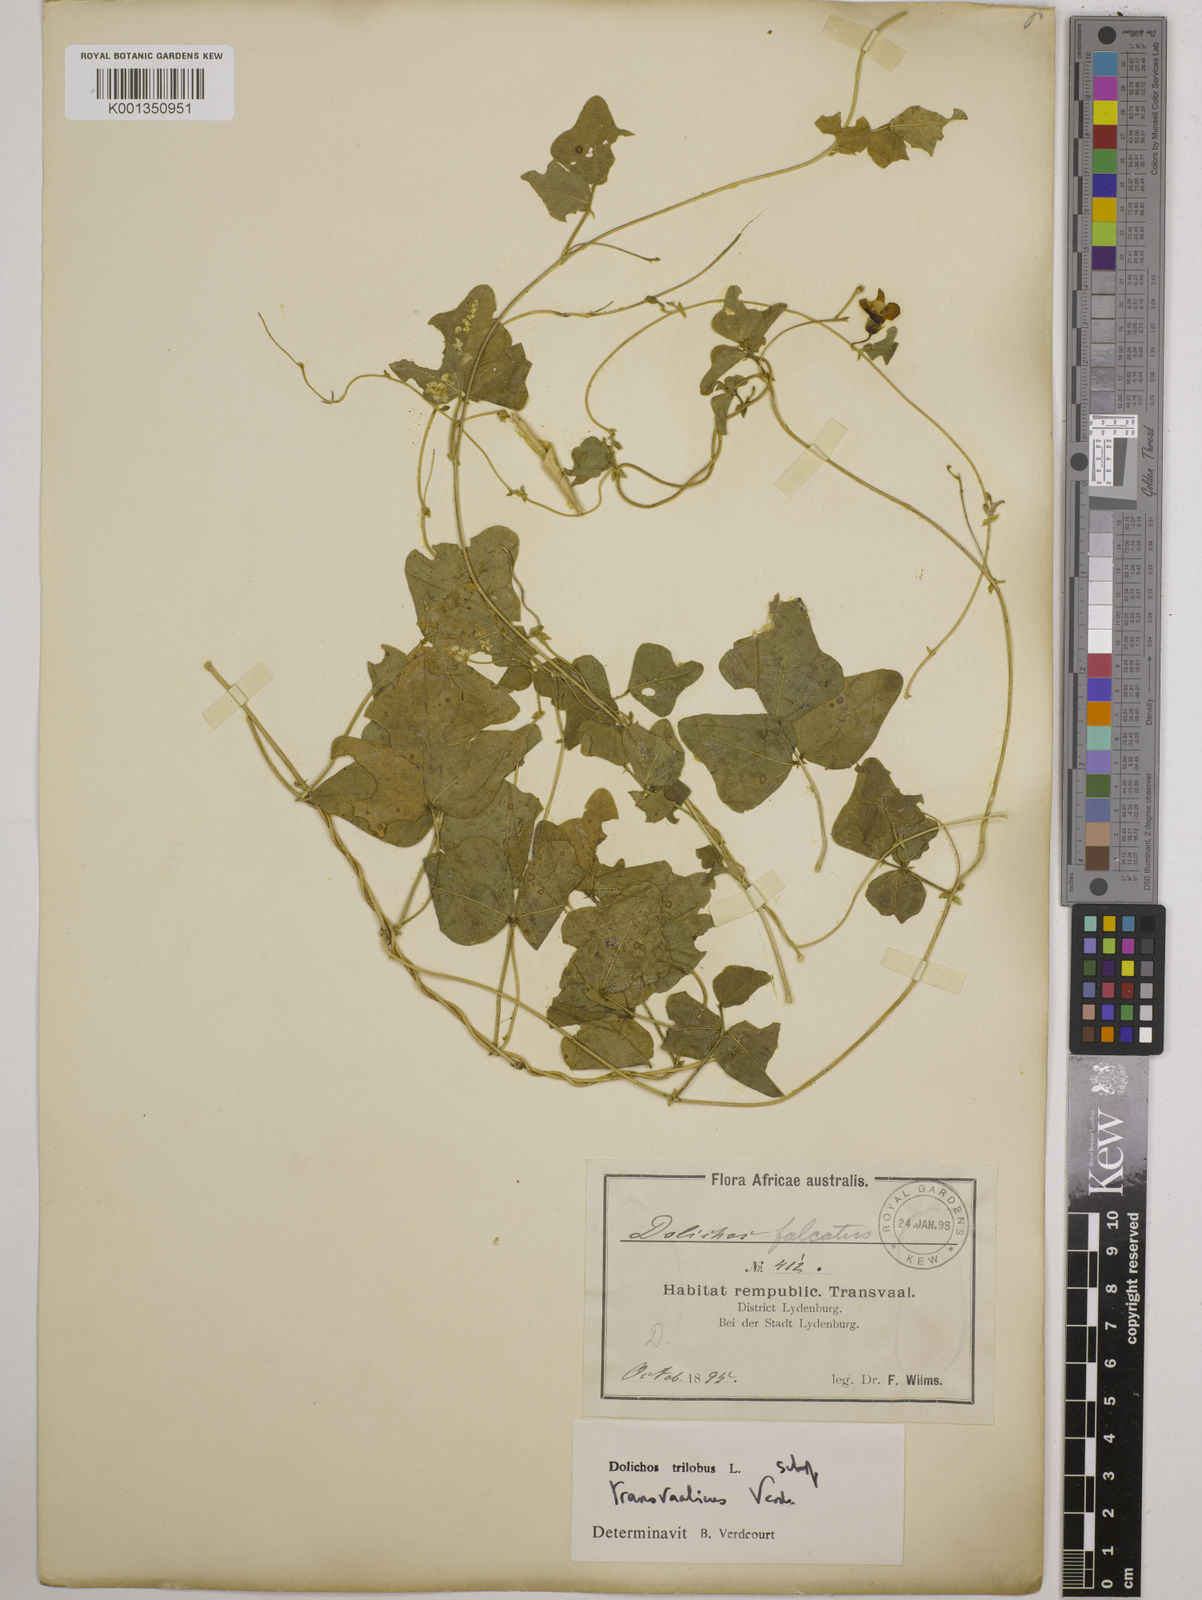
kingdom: Plantae
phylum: Tracheophyta
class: Magnoliopsida
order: Fabales
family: Fabaceae
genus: Dolichos
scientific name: Dolichos
